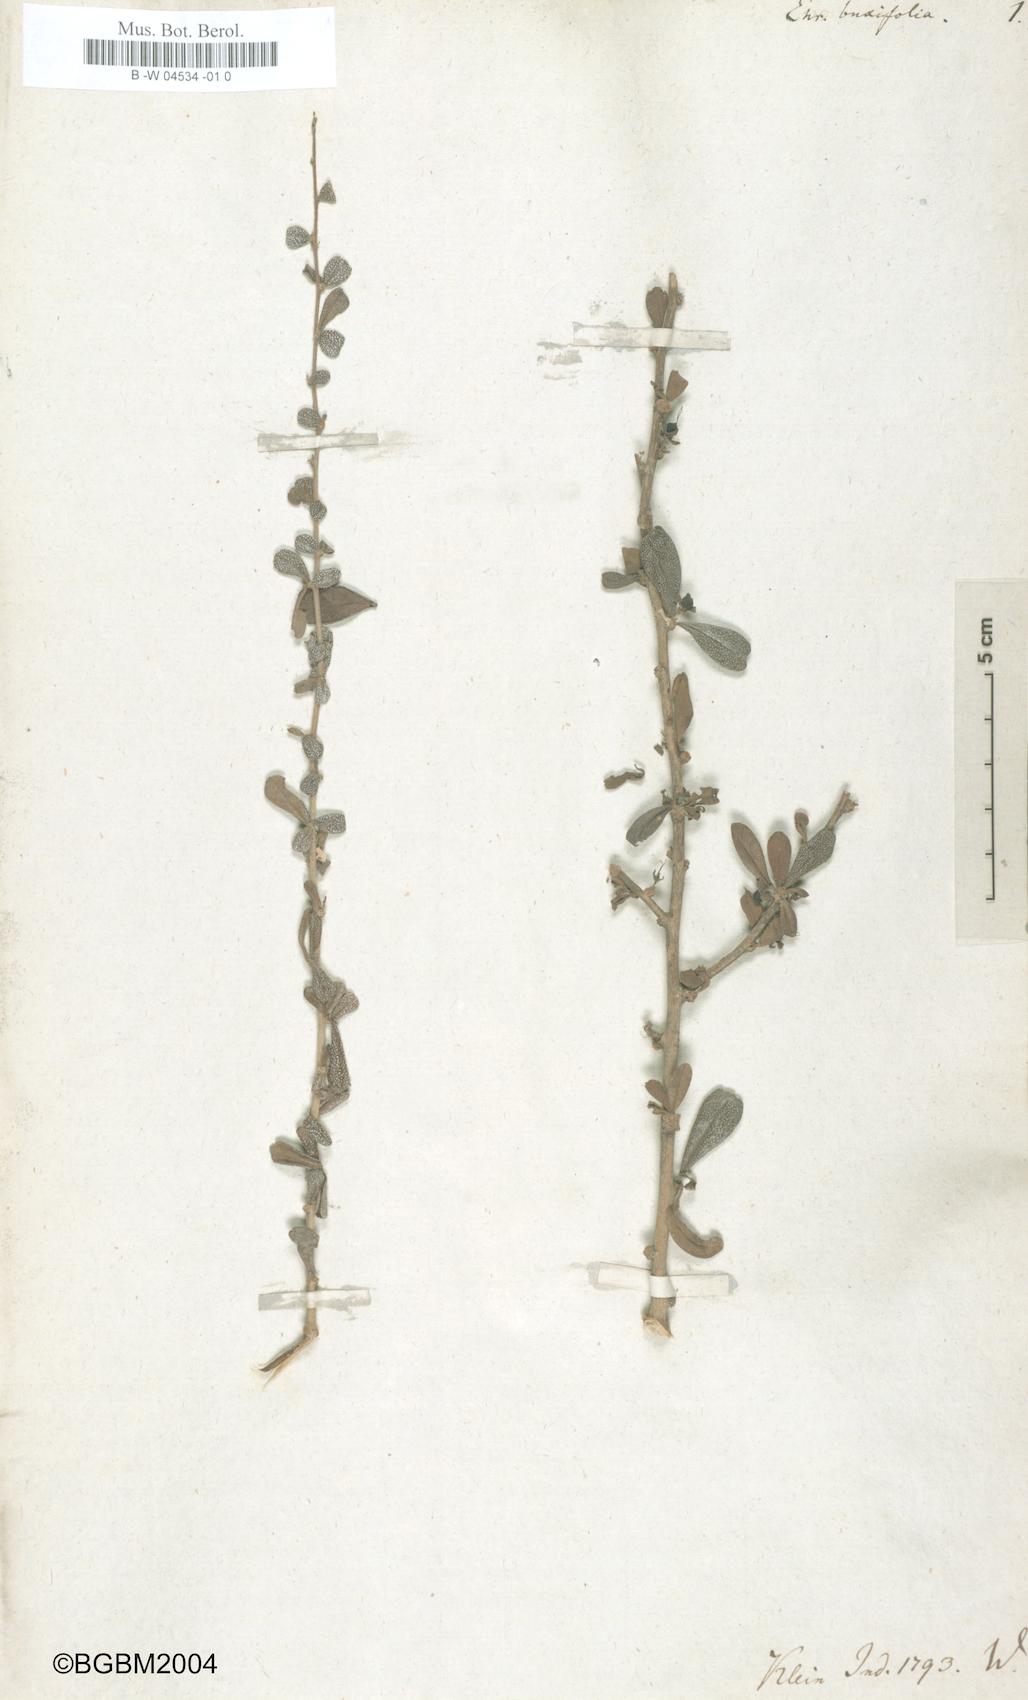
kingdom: Plantae
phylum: Tracheophyta
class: Magnoliopsida
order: Boraginales
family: Ehretiaceae
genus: Ehretia
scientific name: Ehretia microphylla
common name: Fukien-tea
